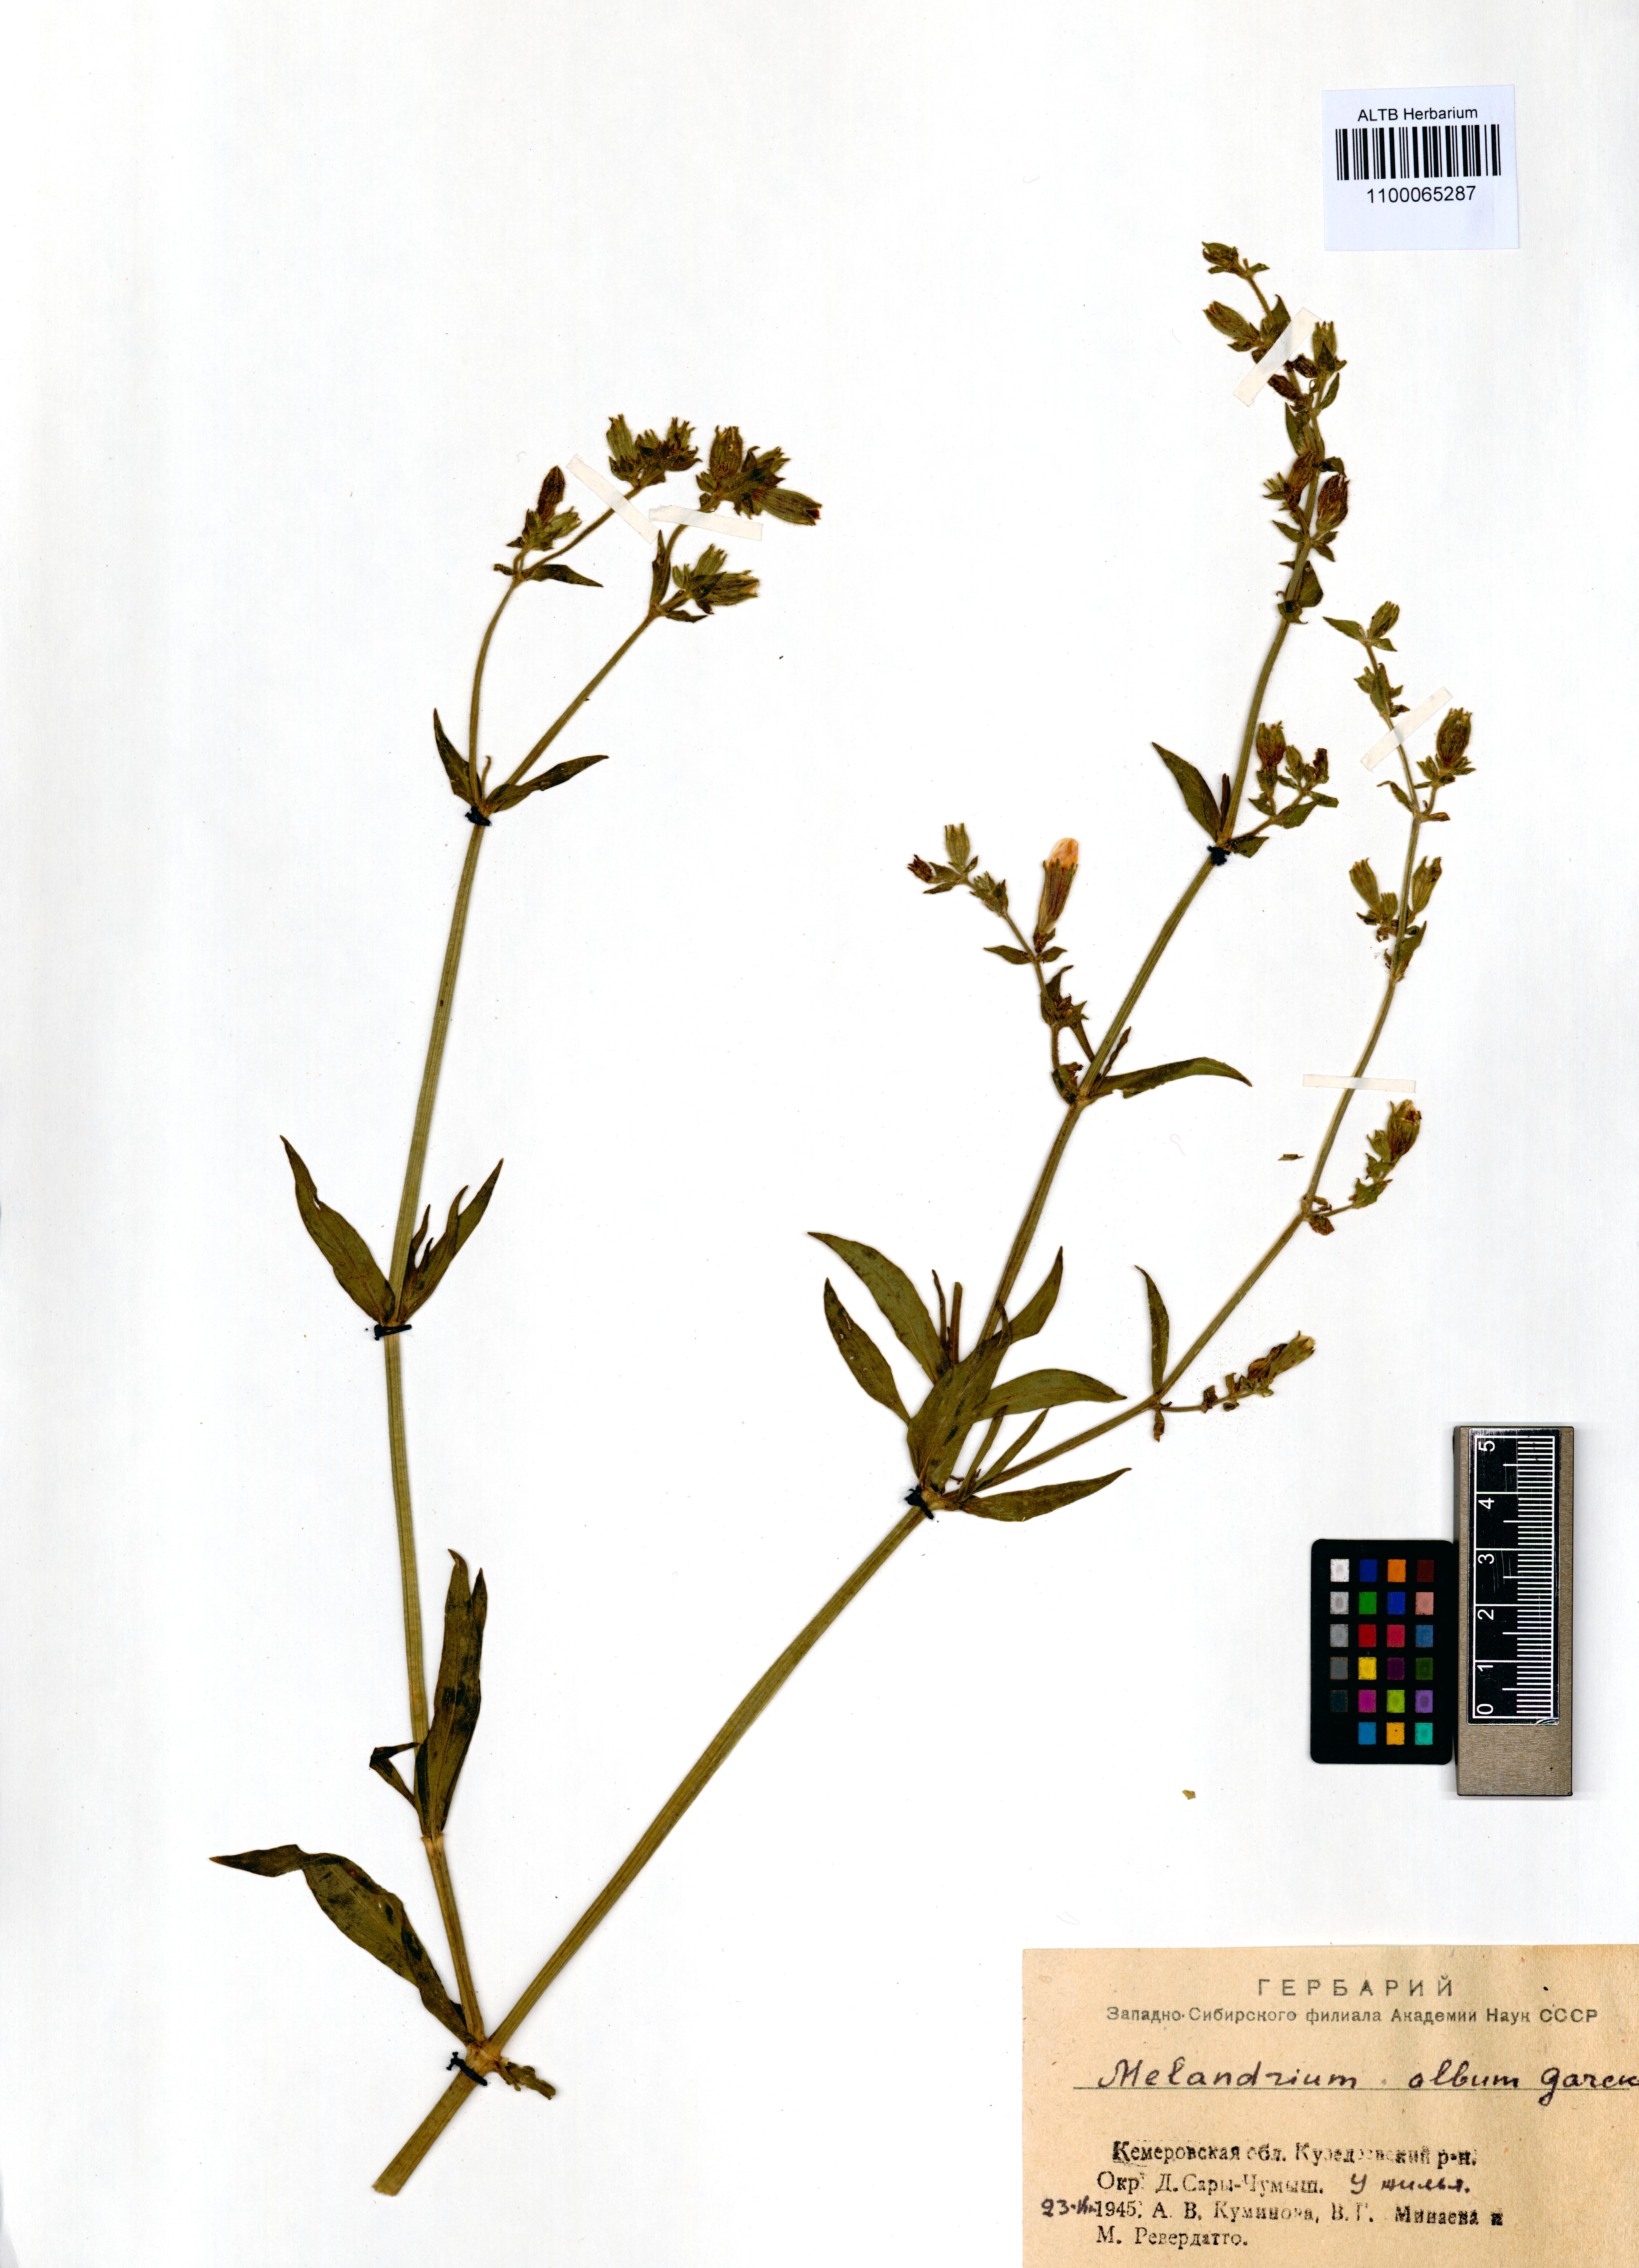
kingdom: Plantae
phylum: Tracheophyta
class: Magnoliopsida
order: Caryophyllales
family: Caryophyllaceae
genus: Silene
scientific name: Silene latifolia
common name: White campion
